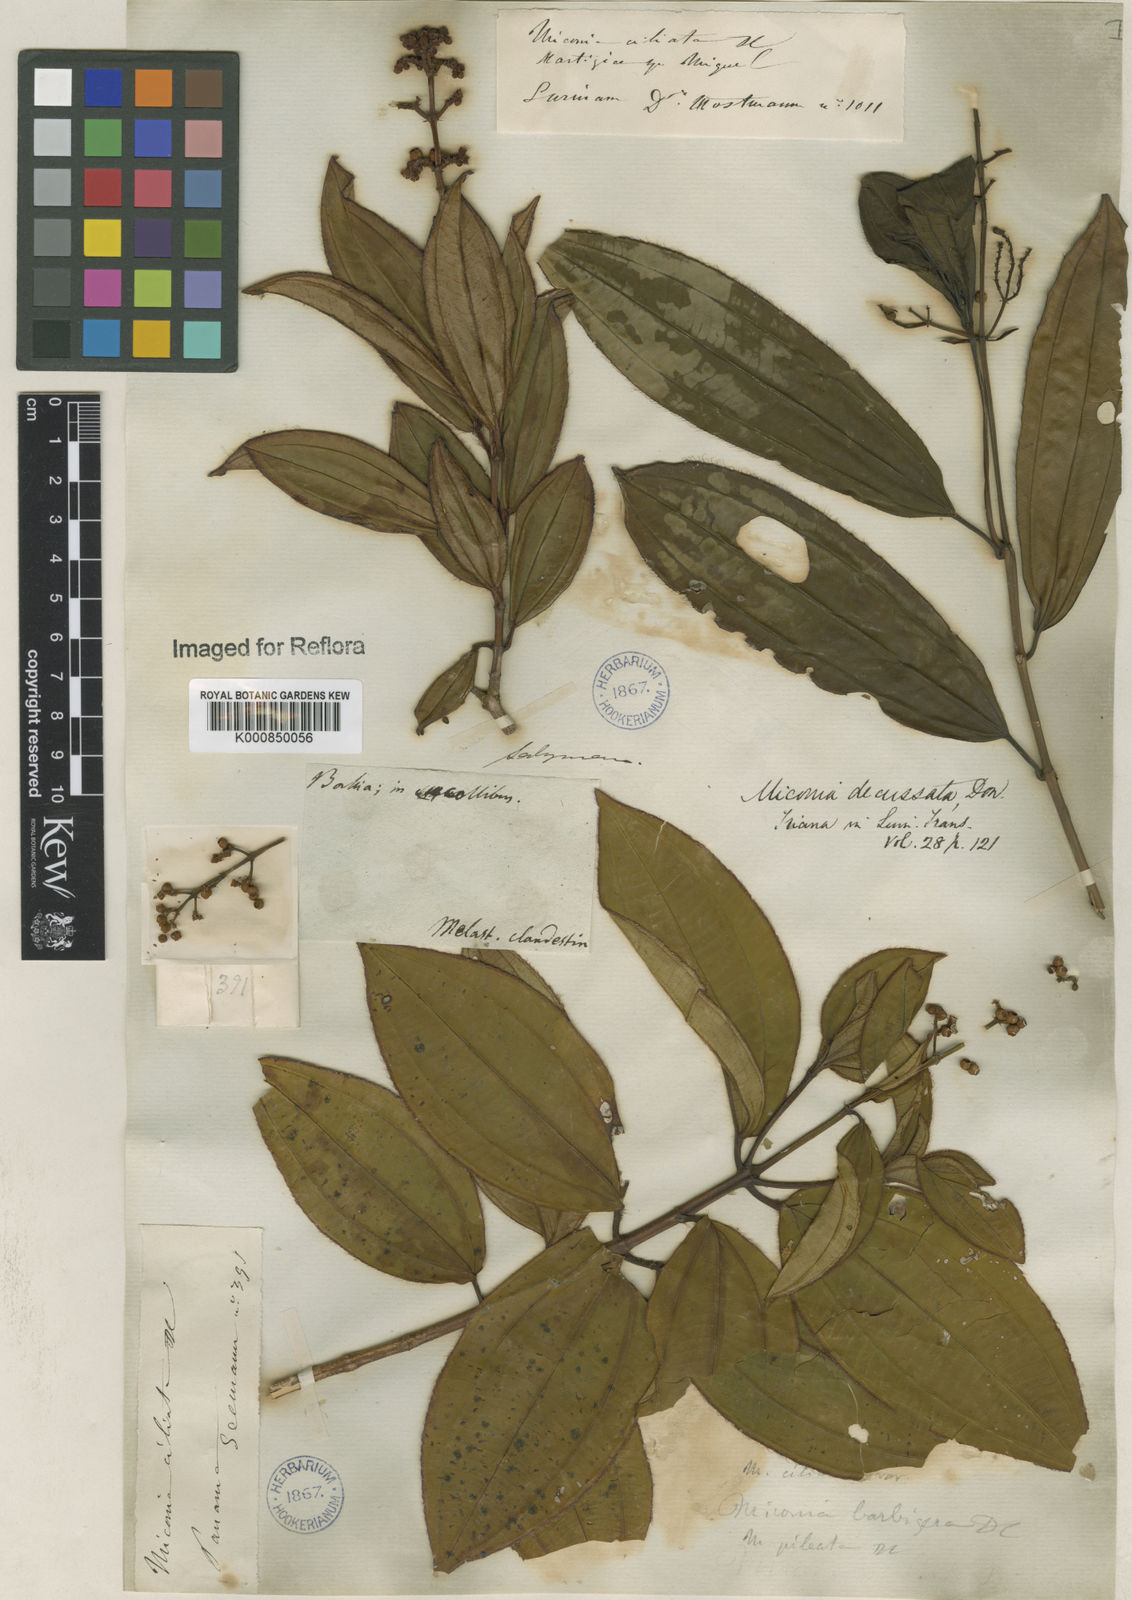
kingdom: Plantae
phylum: Tracheophyta
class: Magnoliopsida
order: Myrtales
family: Melastomataceae
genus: Miconia
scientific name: Miconia ciliata
